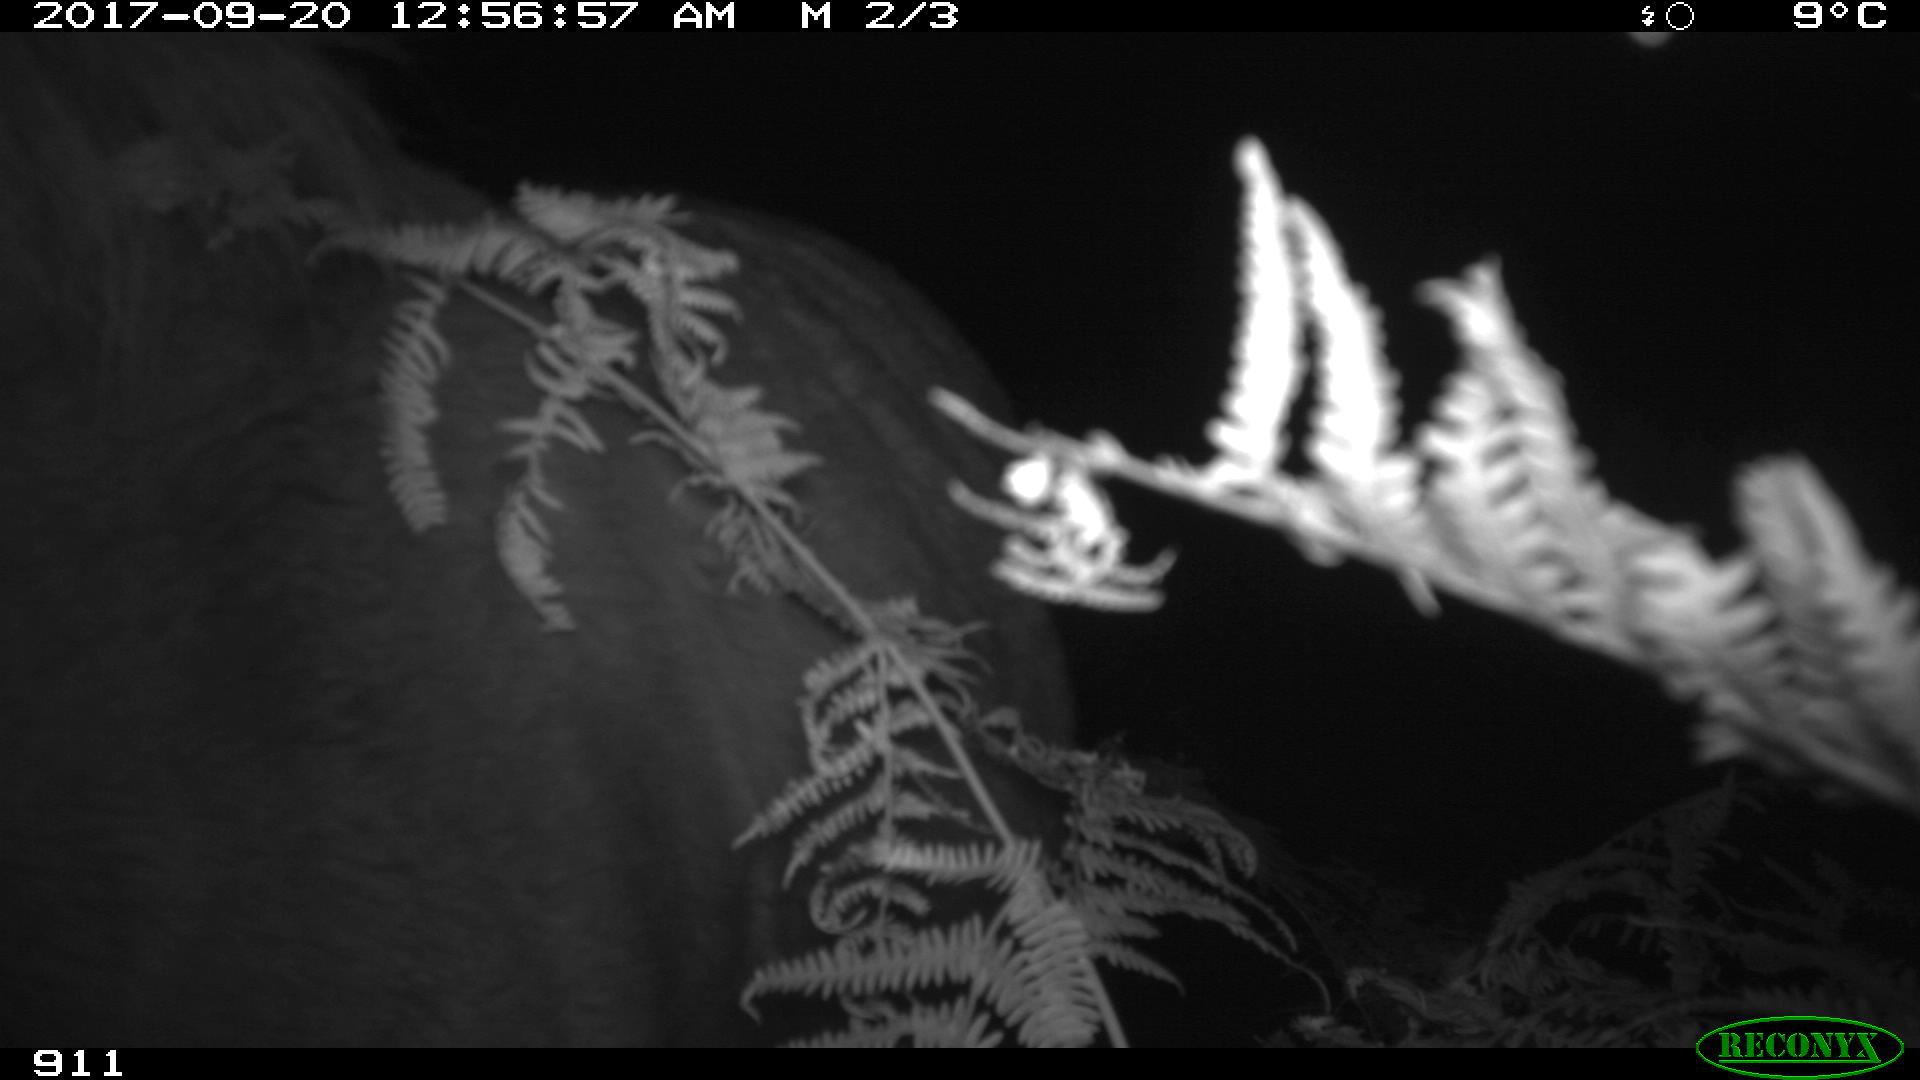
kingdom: Animalia
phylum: Chordata
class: Mammalia
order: Perissodactyla
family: Equidae
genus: Equus
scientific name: Equus caballus
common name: Horse
